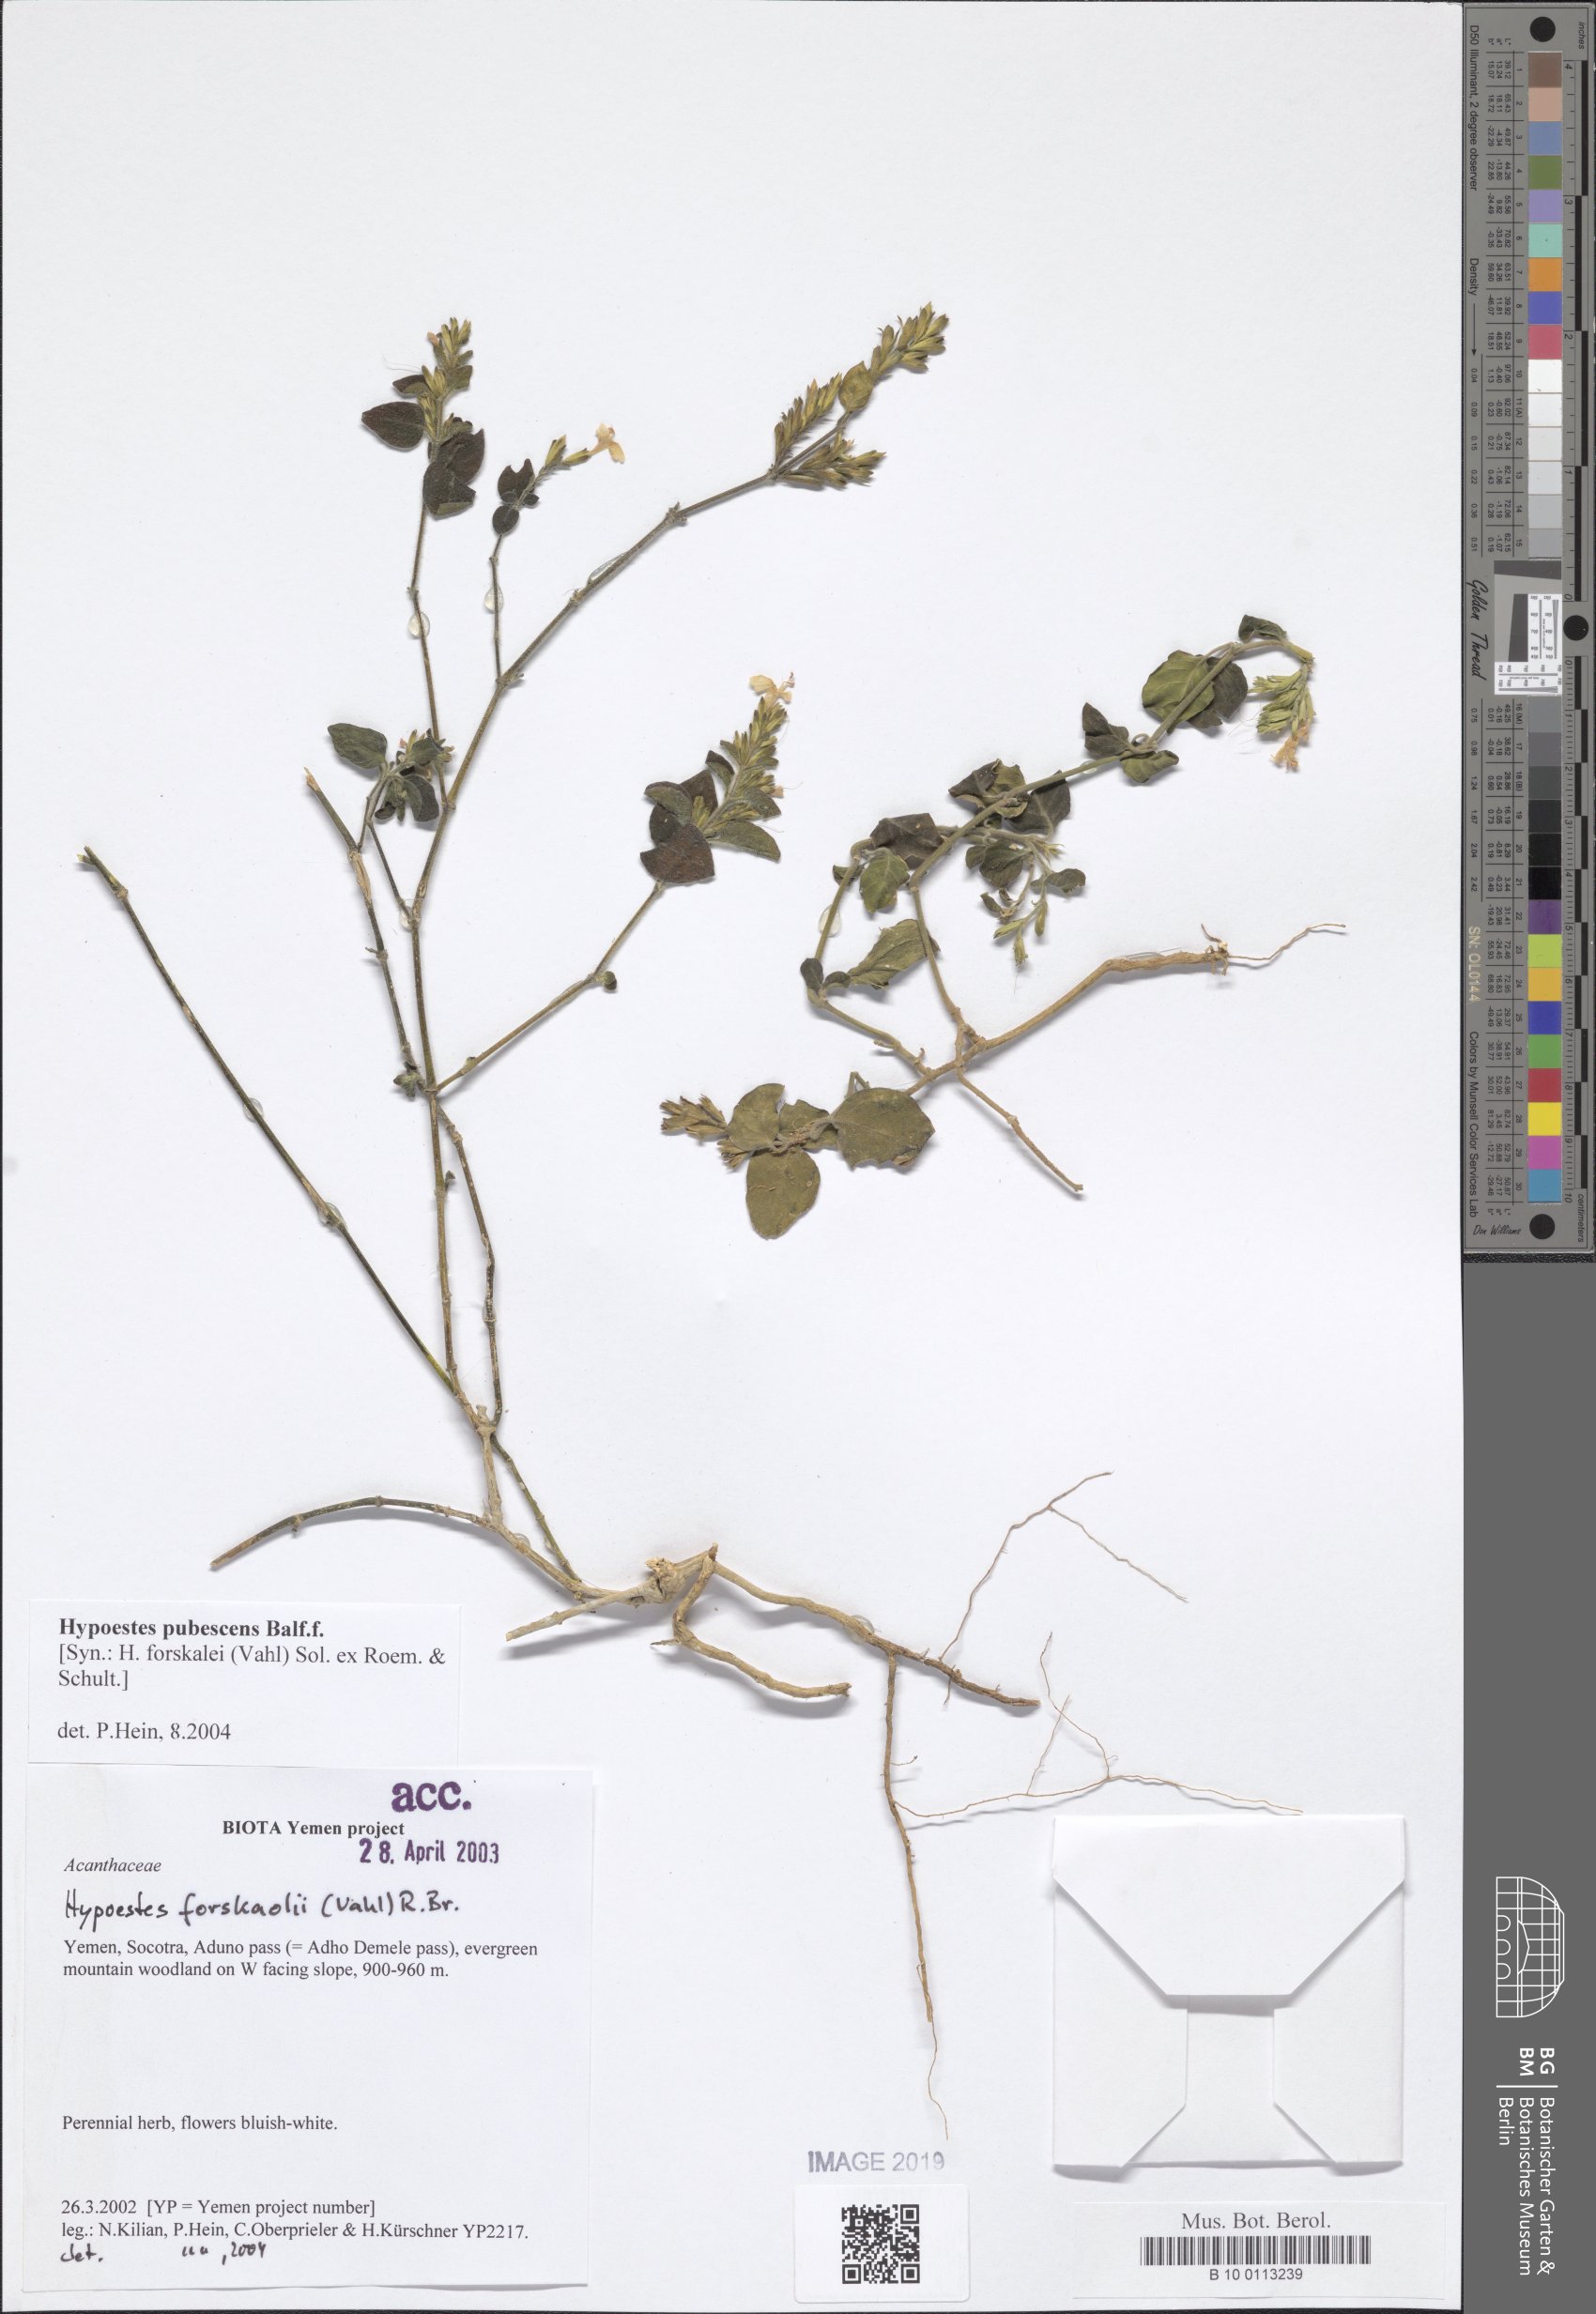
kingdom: Plantae
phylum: Tracheophyta
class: Magnoliopsida
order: Lamiales
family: Acanthaceae
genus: Hypoestes
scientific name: Hypoestes pubescens
